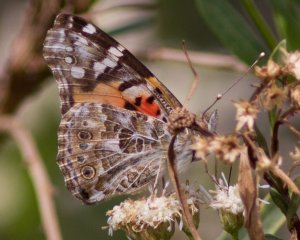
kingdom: Animalia
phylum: Arthropoda
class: Insecta
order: Lepidoptera
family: Nymphalidae
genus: Vanessa
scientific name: Vanessa cardui
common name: Painted Lady
